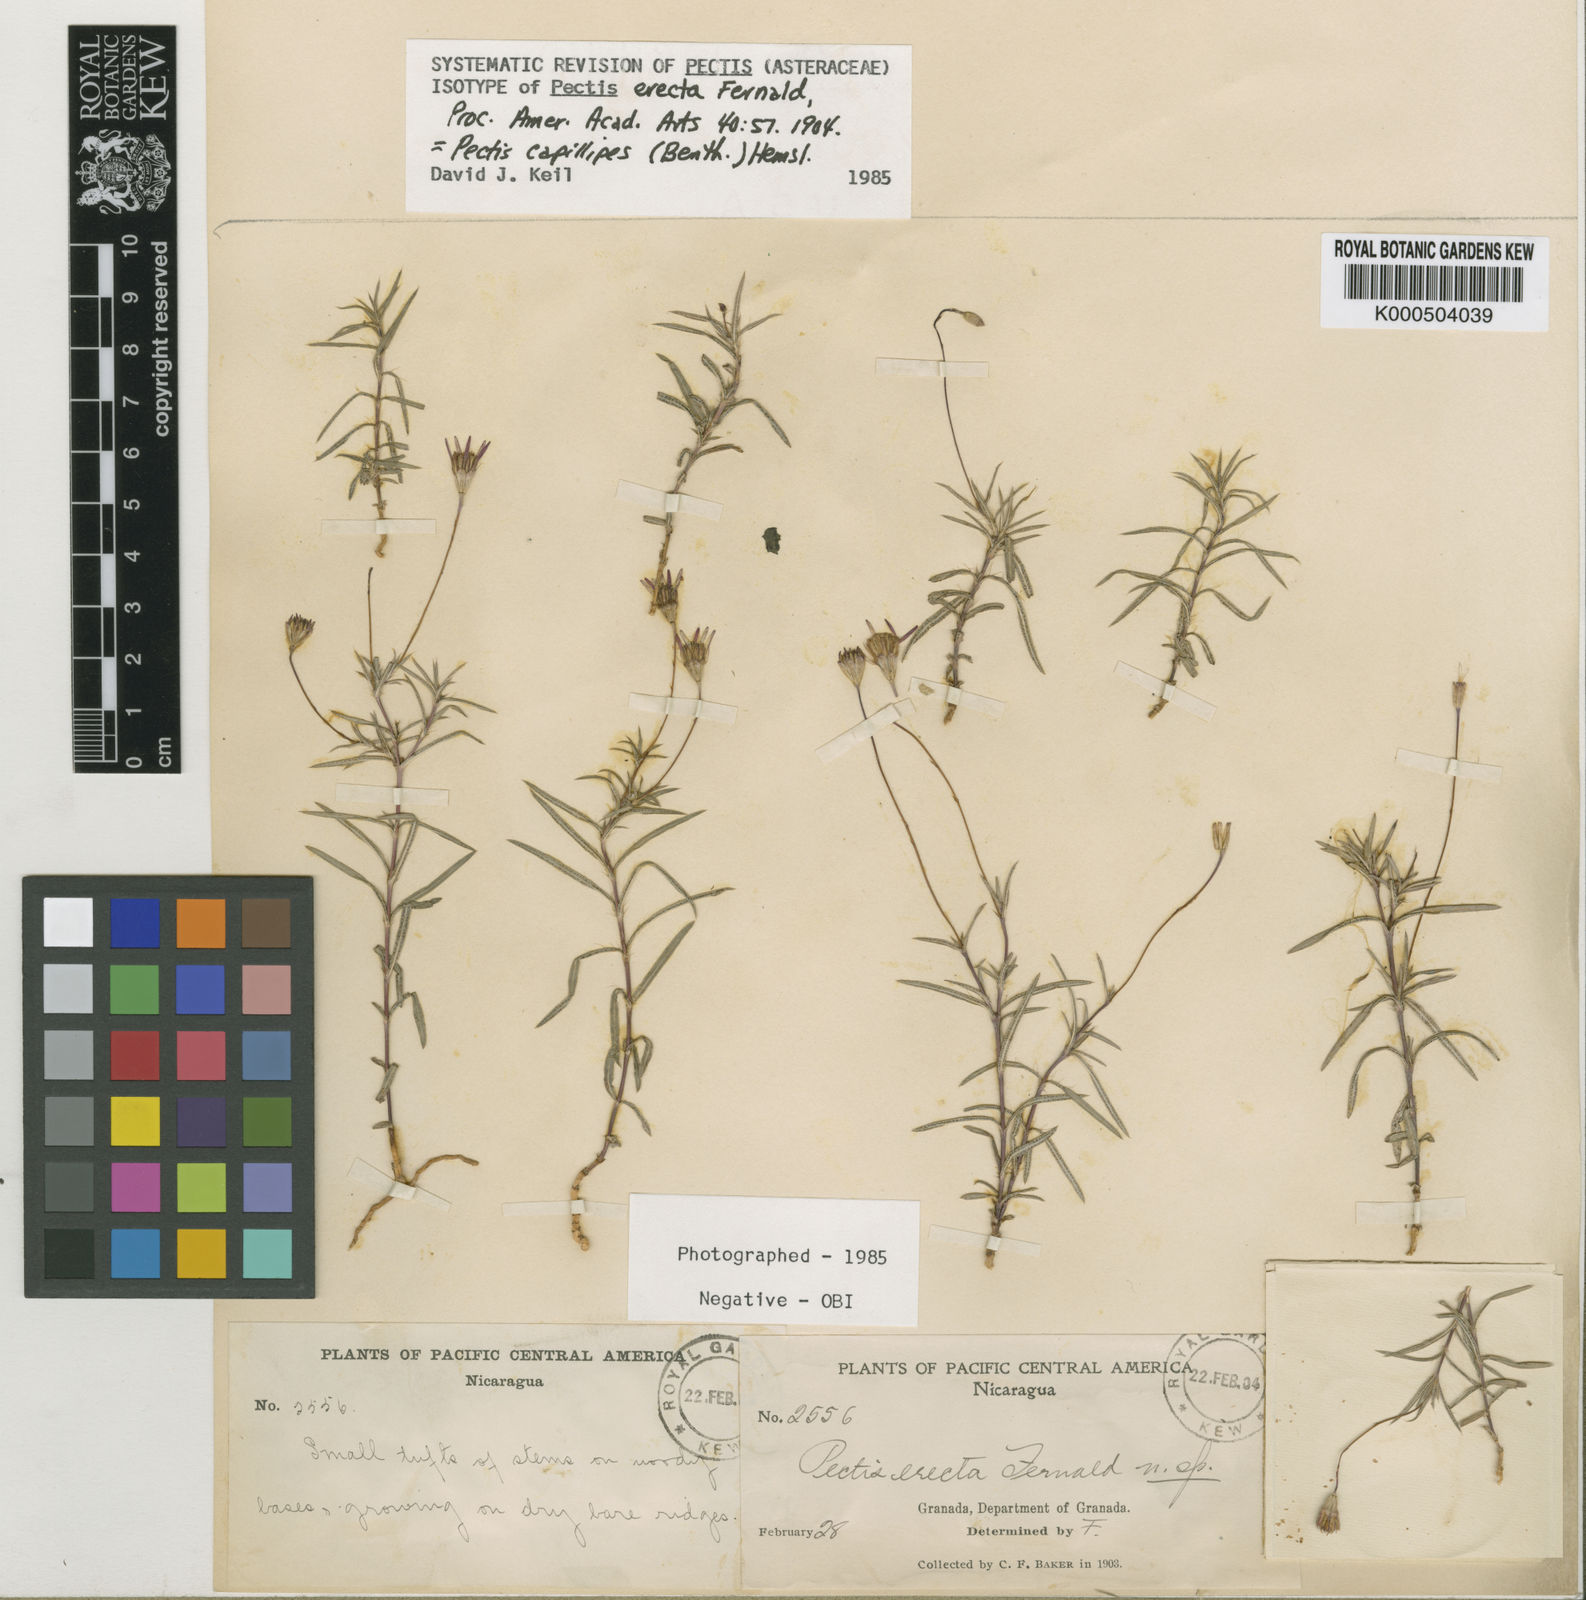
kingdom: Plantae
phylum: Tracheophyta
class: Magnoliopsida
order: Asterales
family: Asteraceae
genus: Pectis
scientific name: Pectis capillipes
